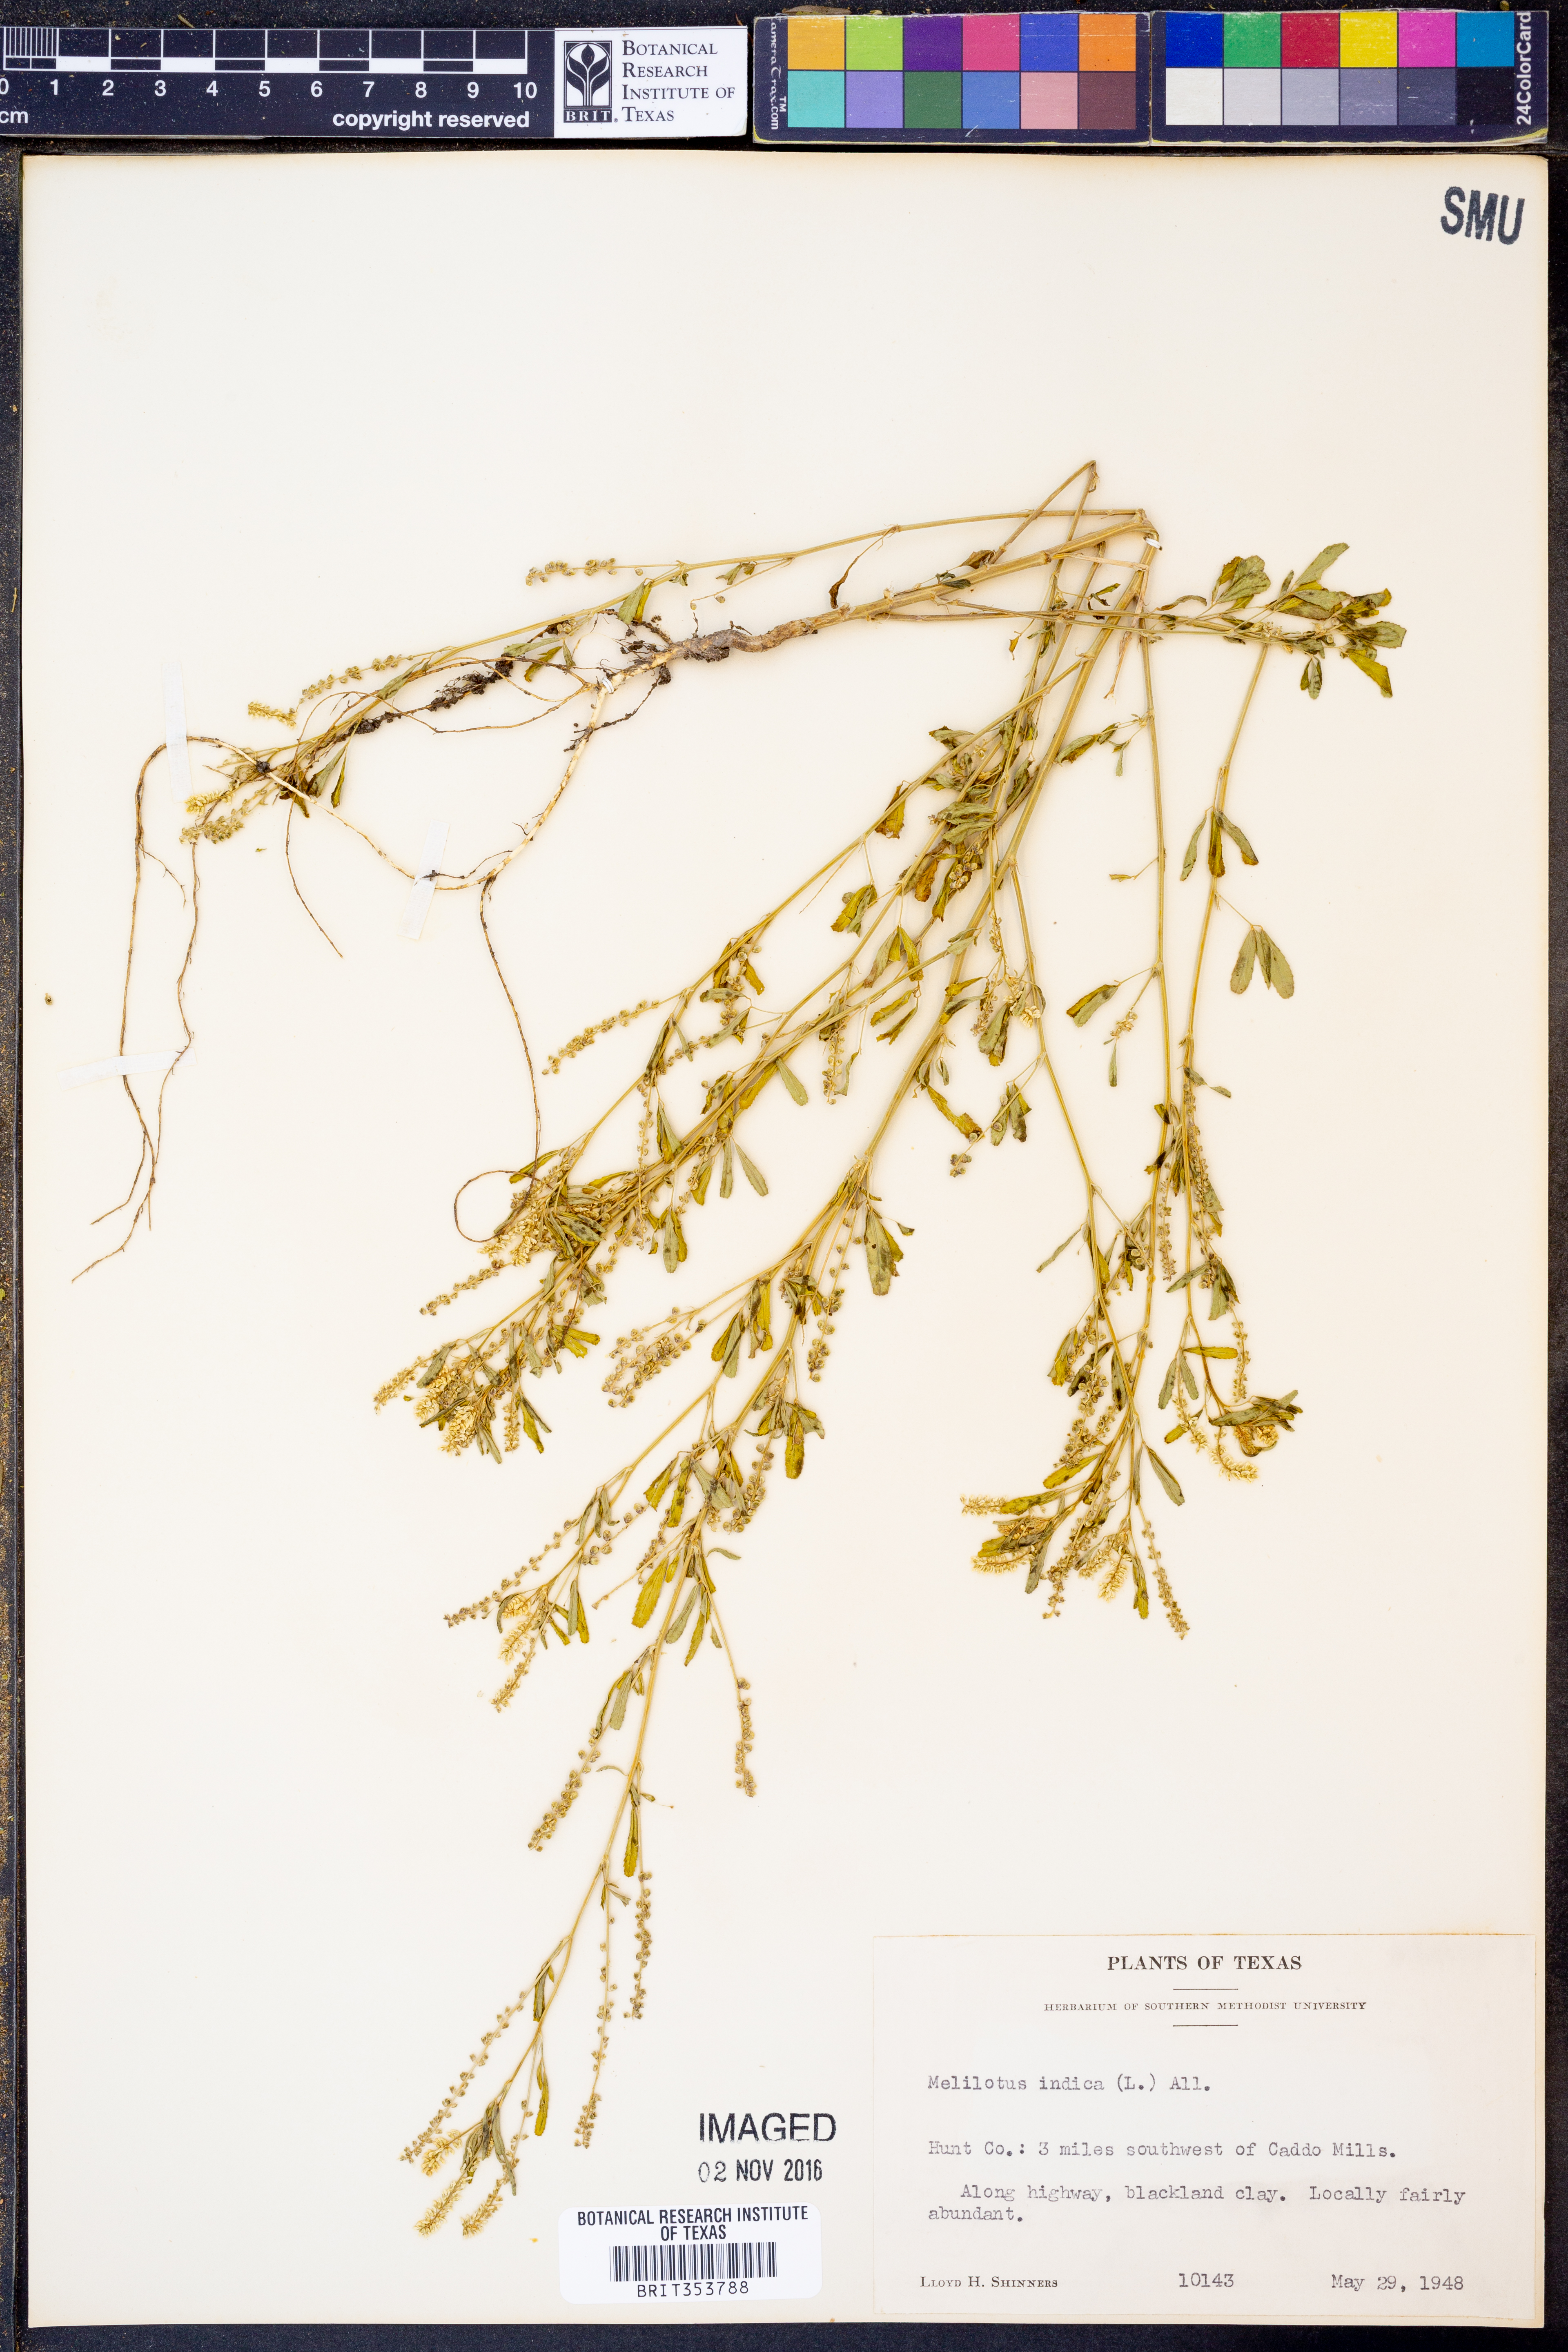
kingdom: Plantae
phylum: Tracheophyta
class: Magnoliopsida
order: Fabales
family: Fabaceae
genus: Melilotus
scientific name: Melilotus indicus
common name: Small melilot
